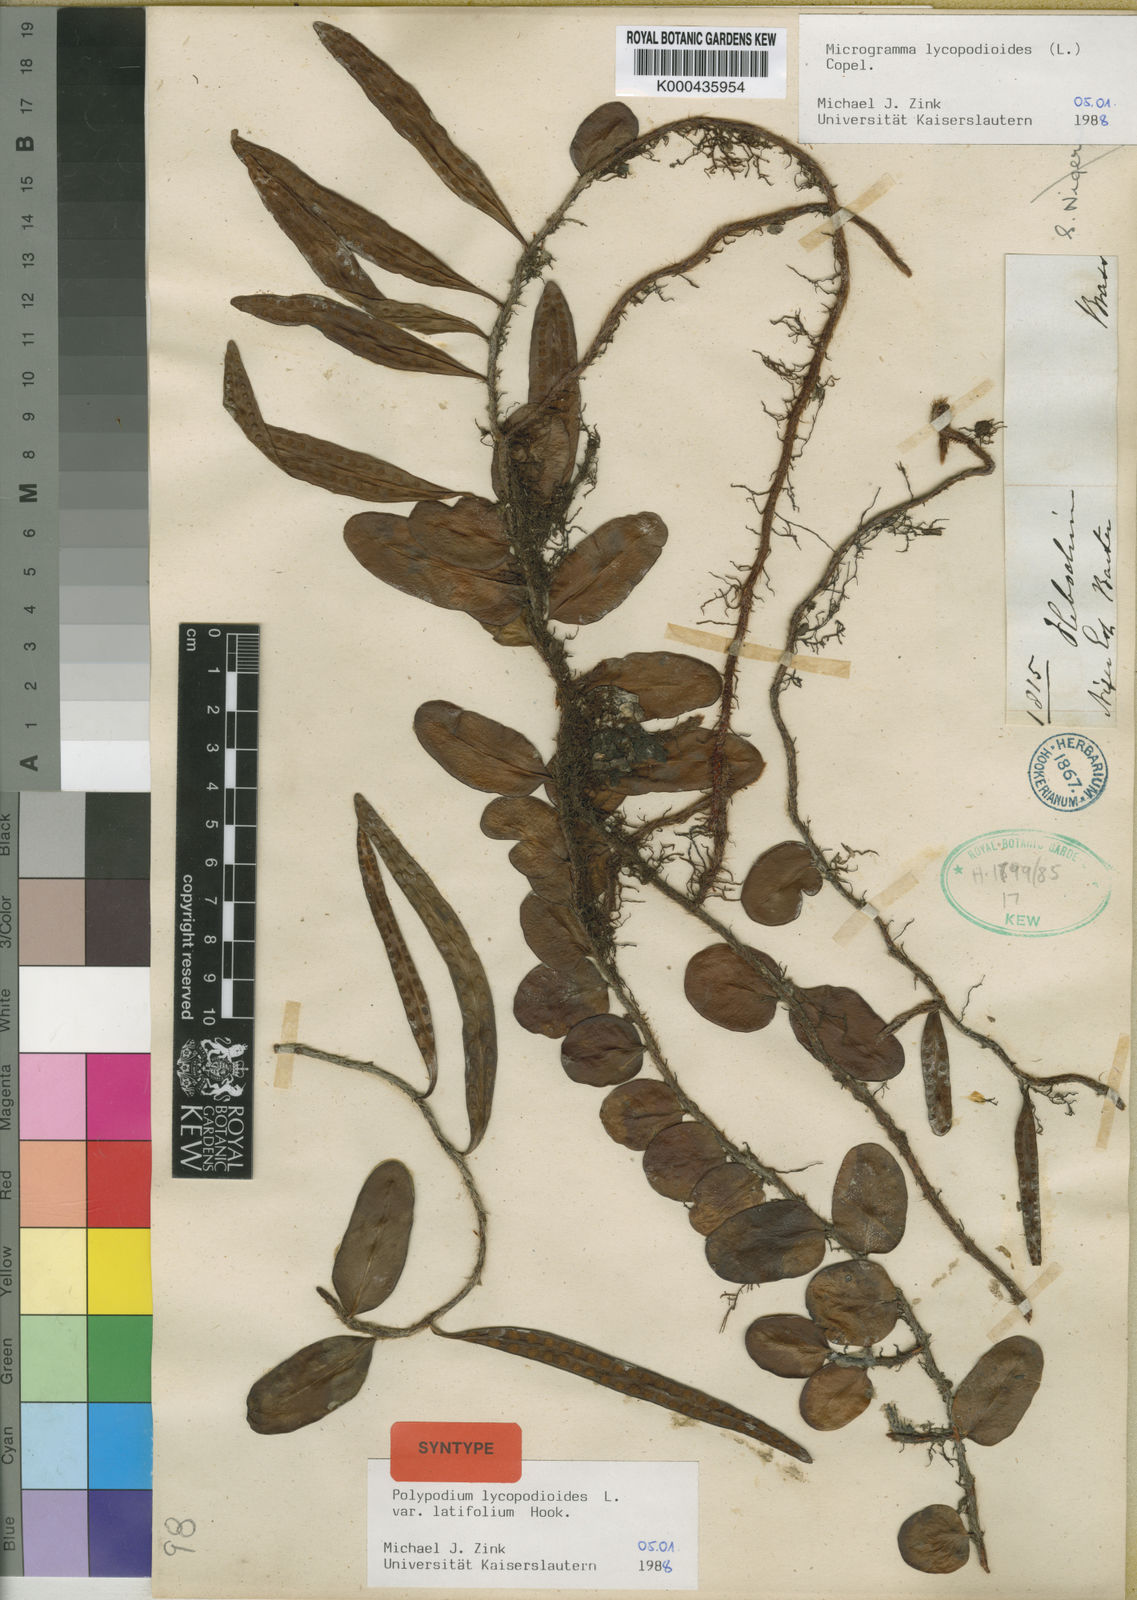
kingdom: Plantae
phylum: Tracheophyta
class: Polypodiopsida
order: Polypodiales
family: Polypodiaceae
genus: Microgramma
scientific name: Microgramma lycopodioides
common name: Bastard catclaw
